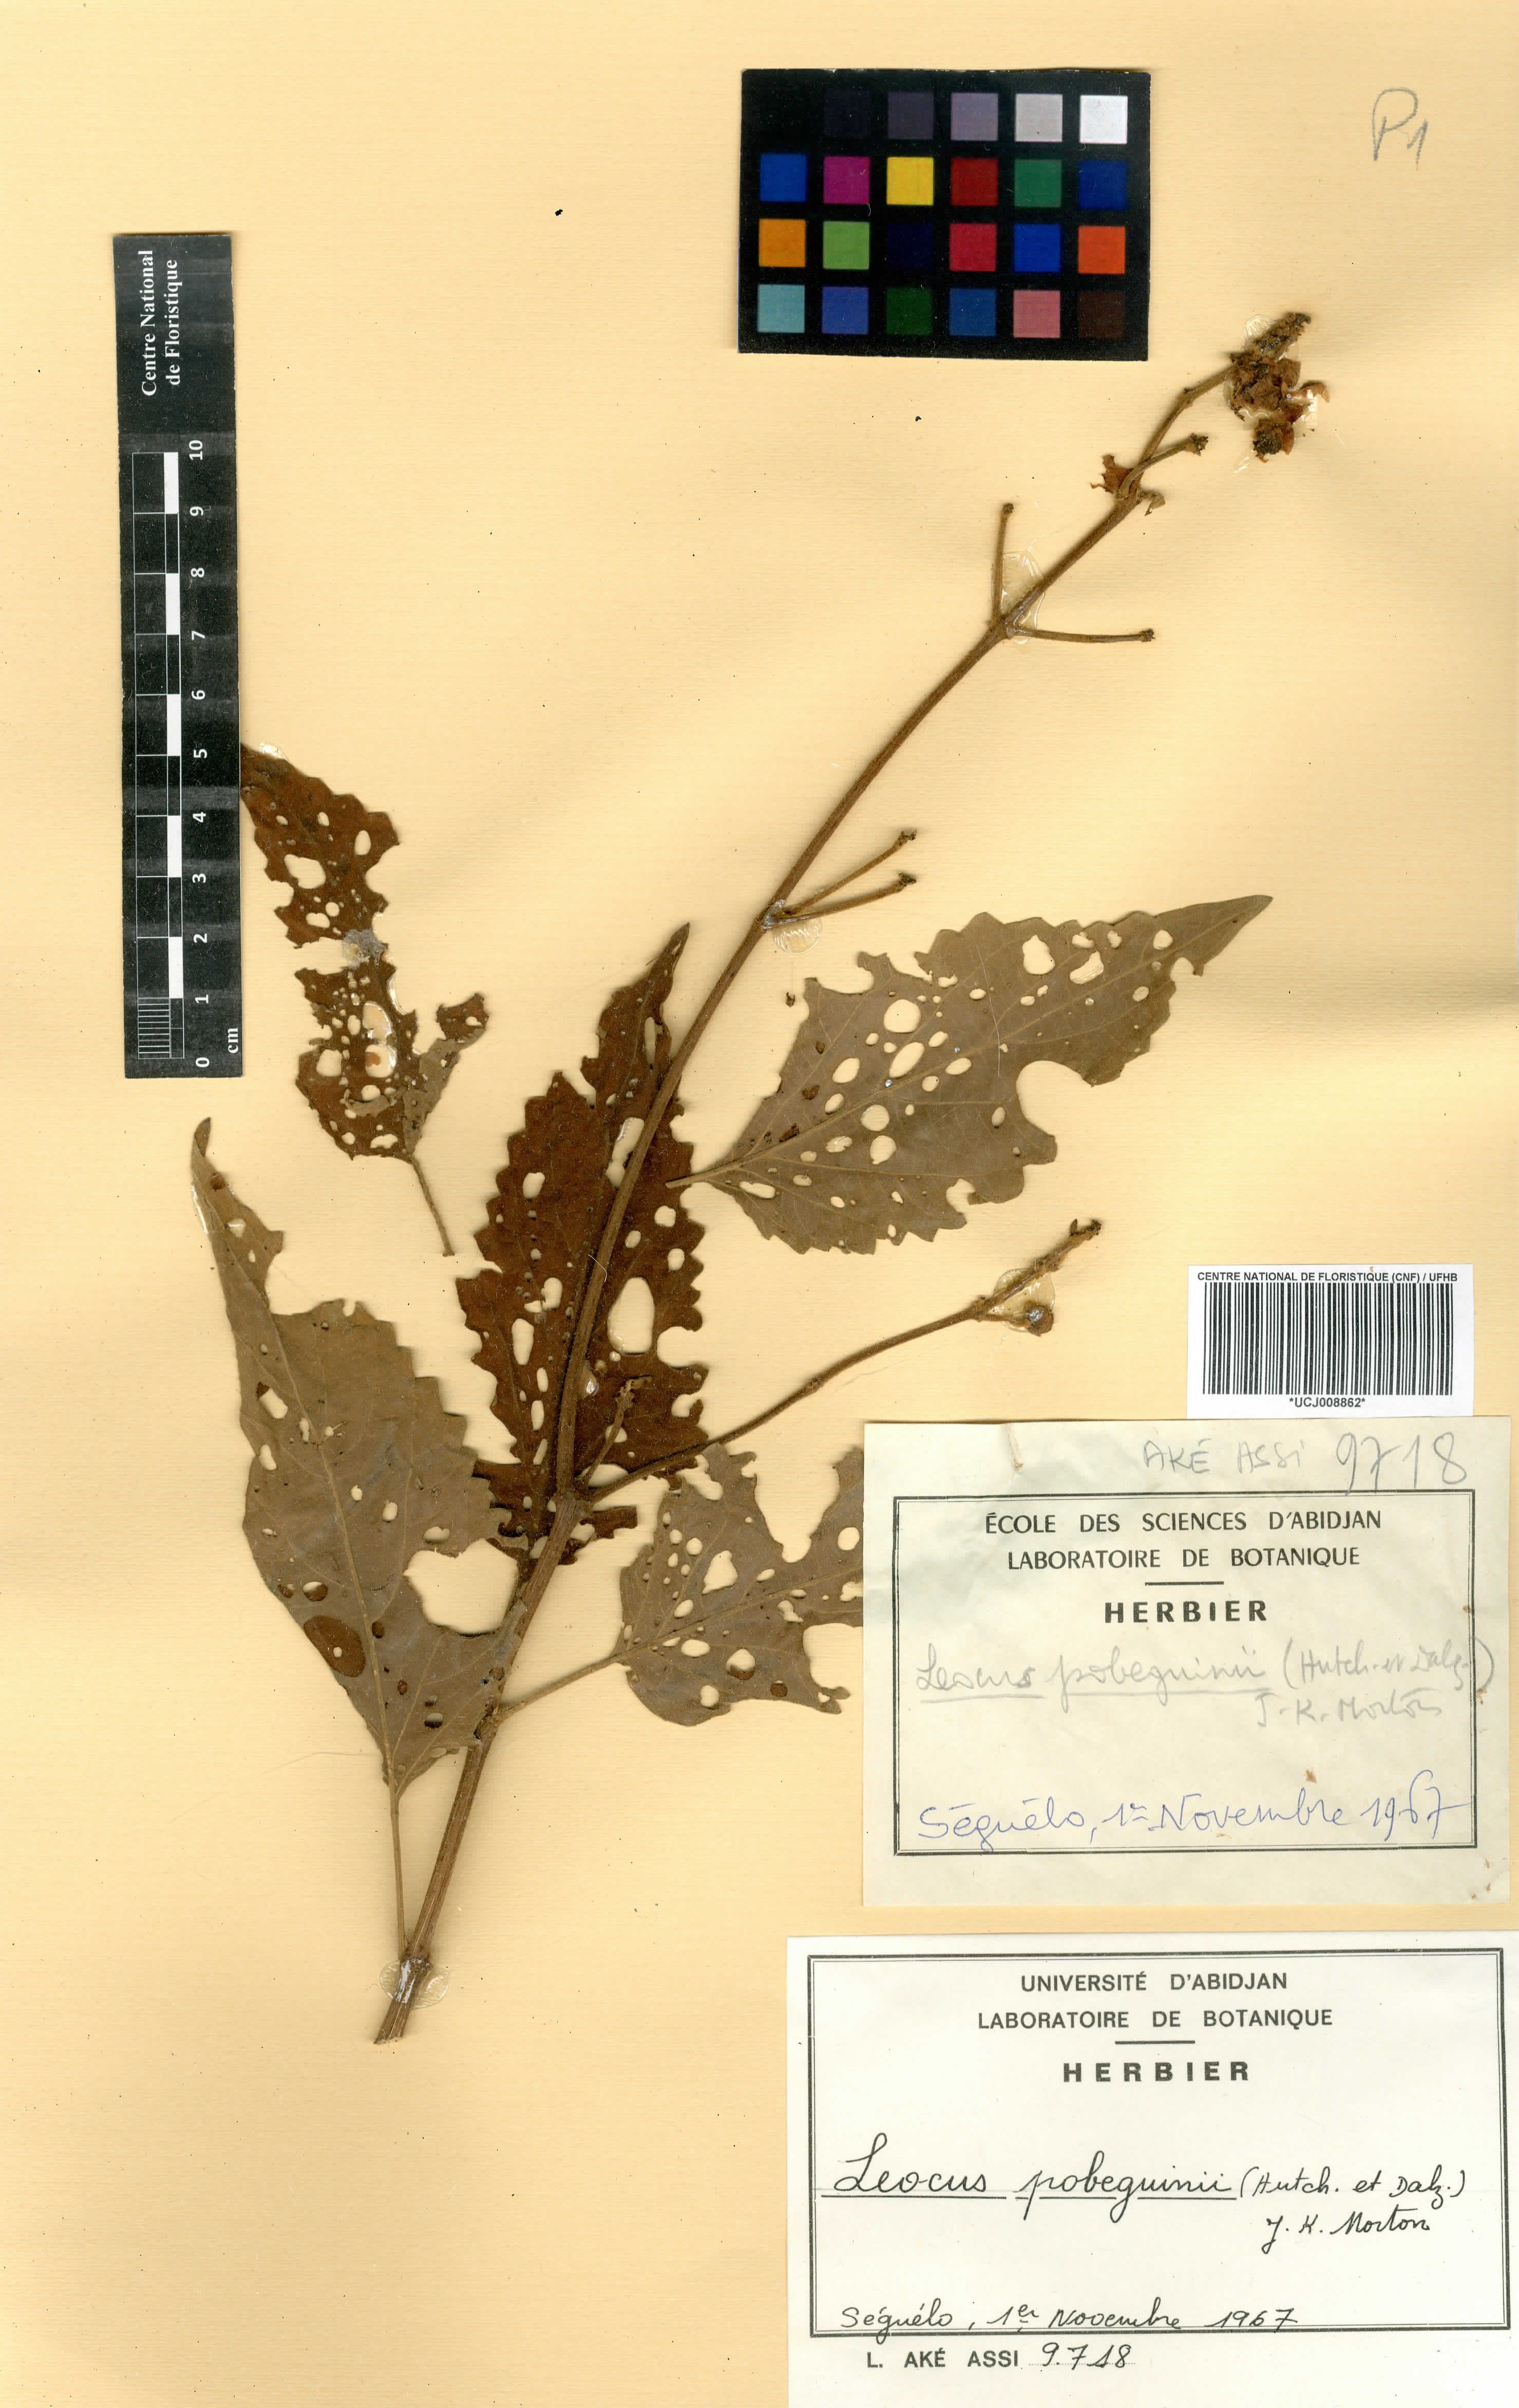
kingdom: Plantae
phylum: Tracheophyta
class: Magnoliopsida
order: Lamiales
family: Lamiaceae
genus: Coleus
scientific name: Coleus pobeguinii
